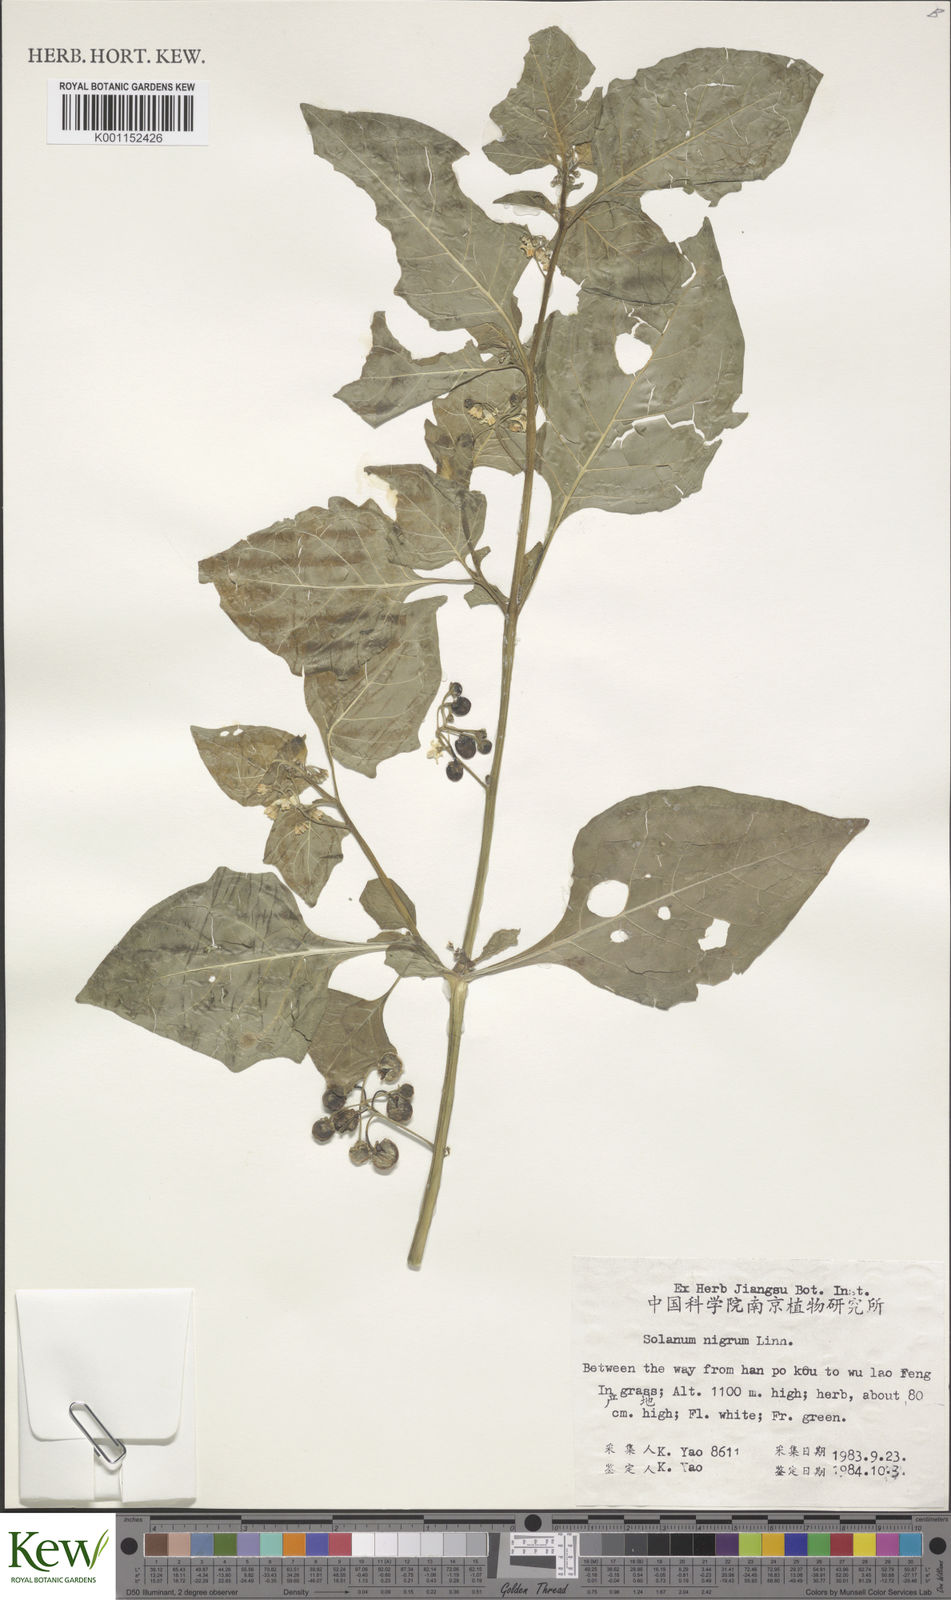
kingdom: Plantae
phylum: Tracheophyta
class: Magnoliopsida
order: Solanales
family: Solanaceae
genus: Solanum
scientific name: Solanum scabrum
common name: Garden-huckleberry
